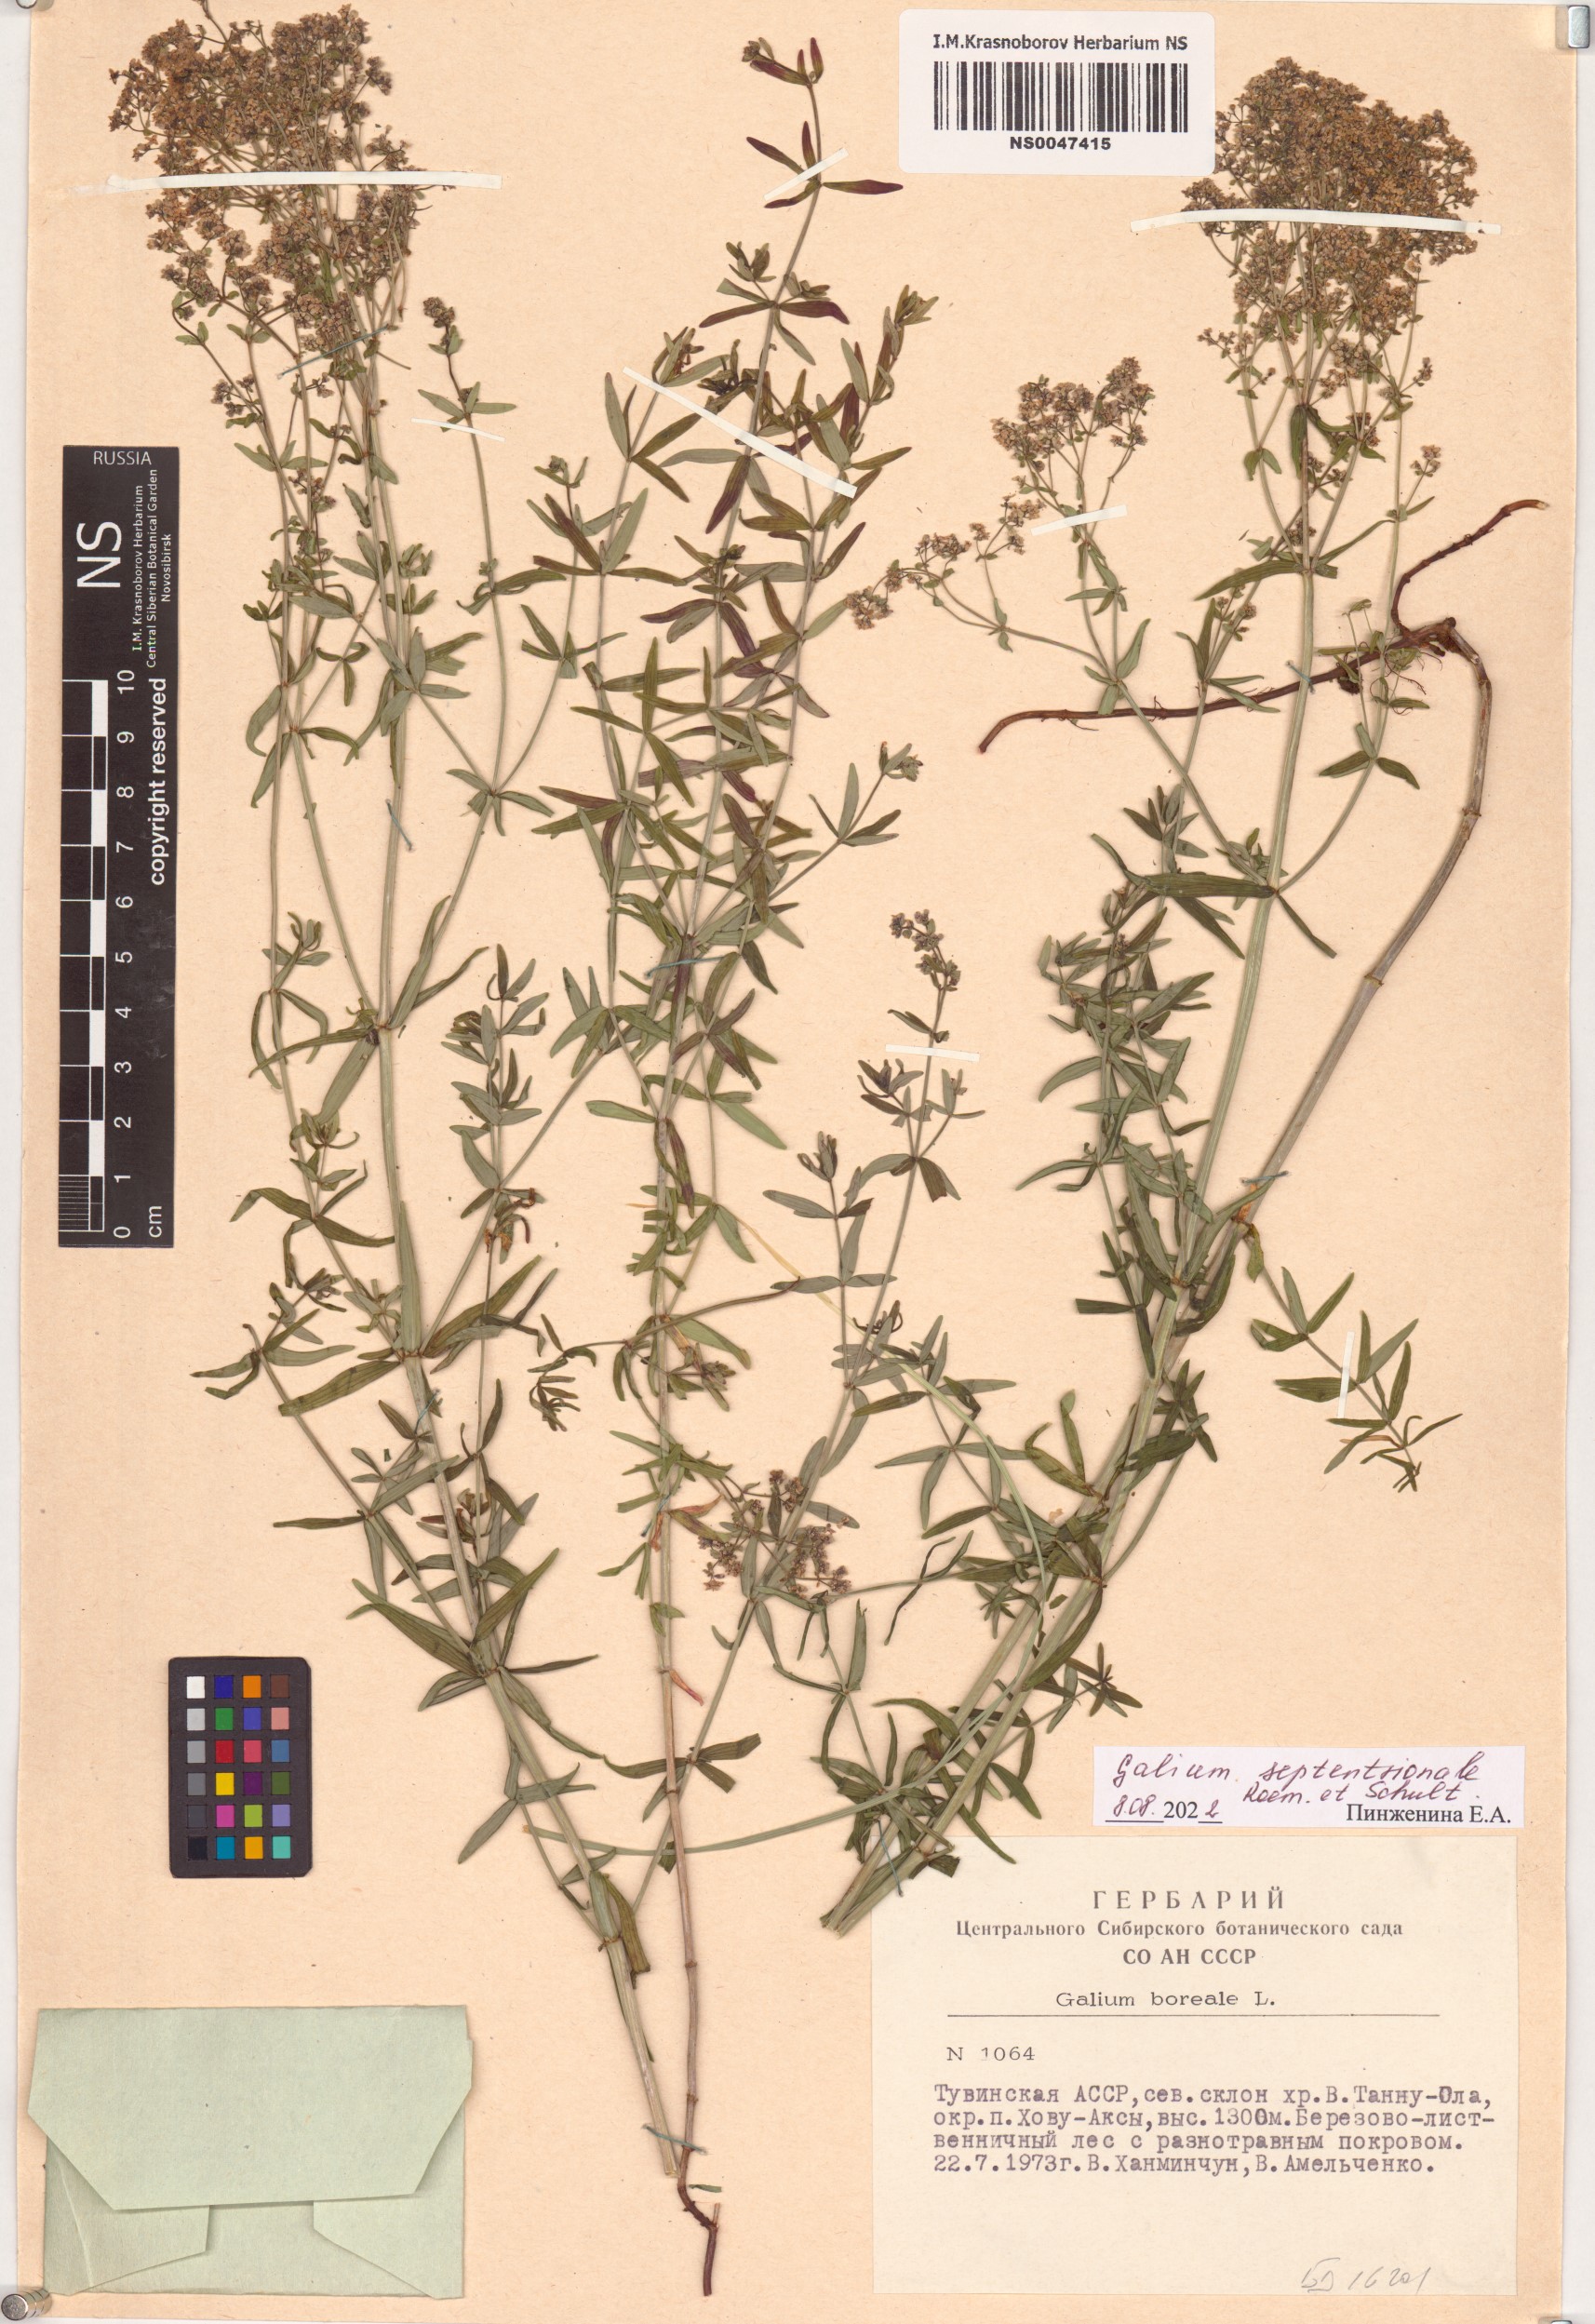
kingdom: Plantae
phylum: Tracheophyta
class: Magnoliopsida
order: Gentianales
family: Rubiaceae
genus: Galium
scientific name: Galium boreale
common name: Northern bedstraw
